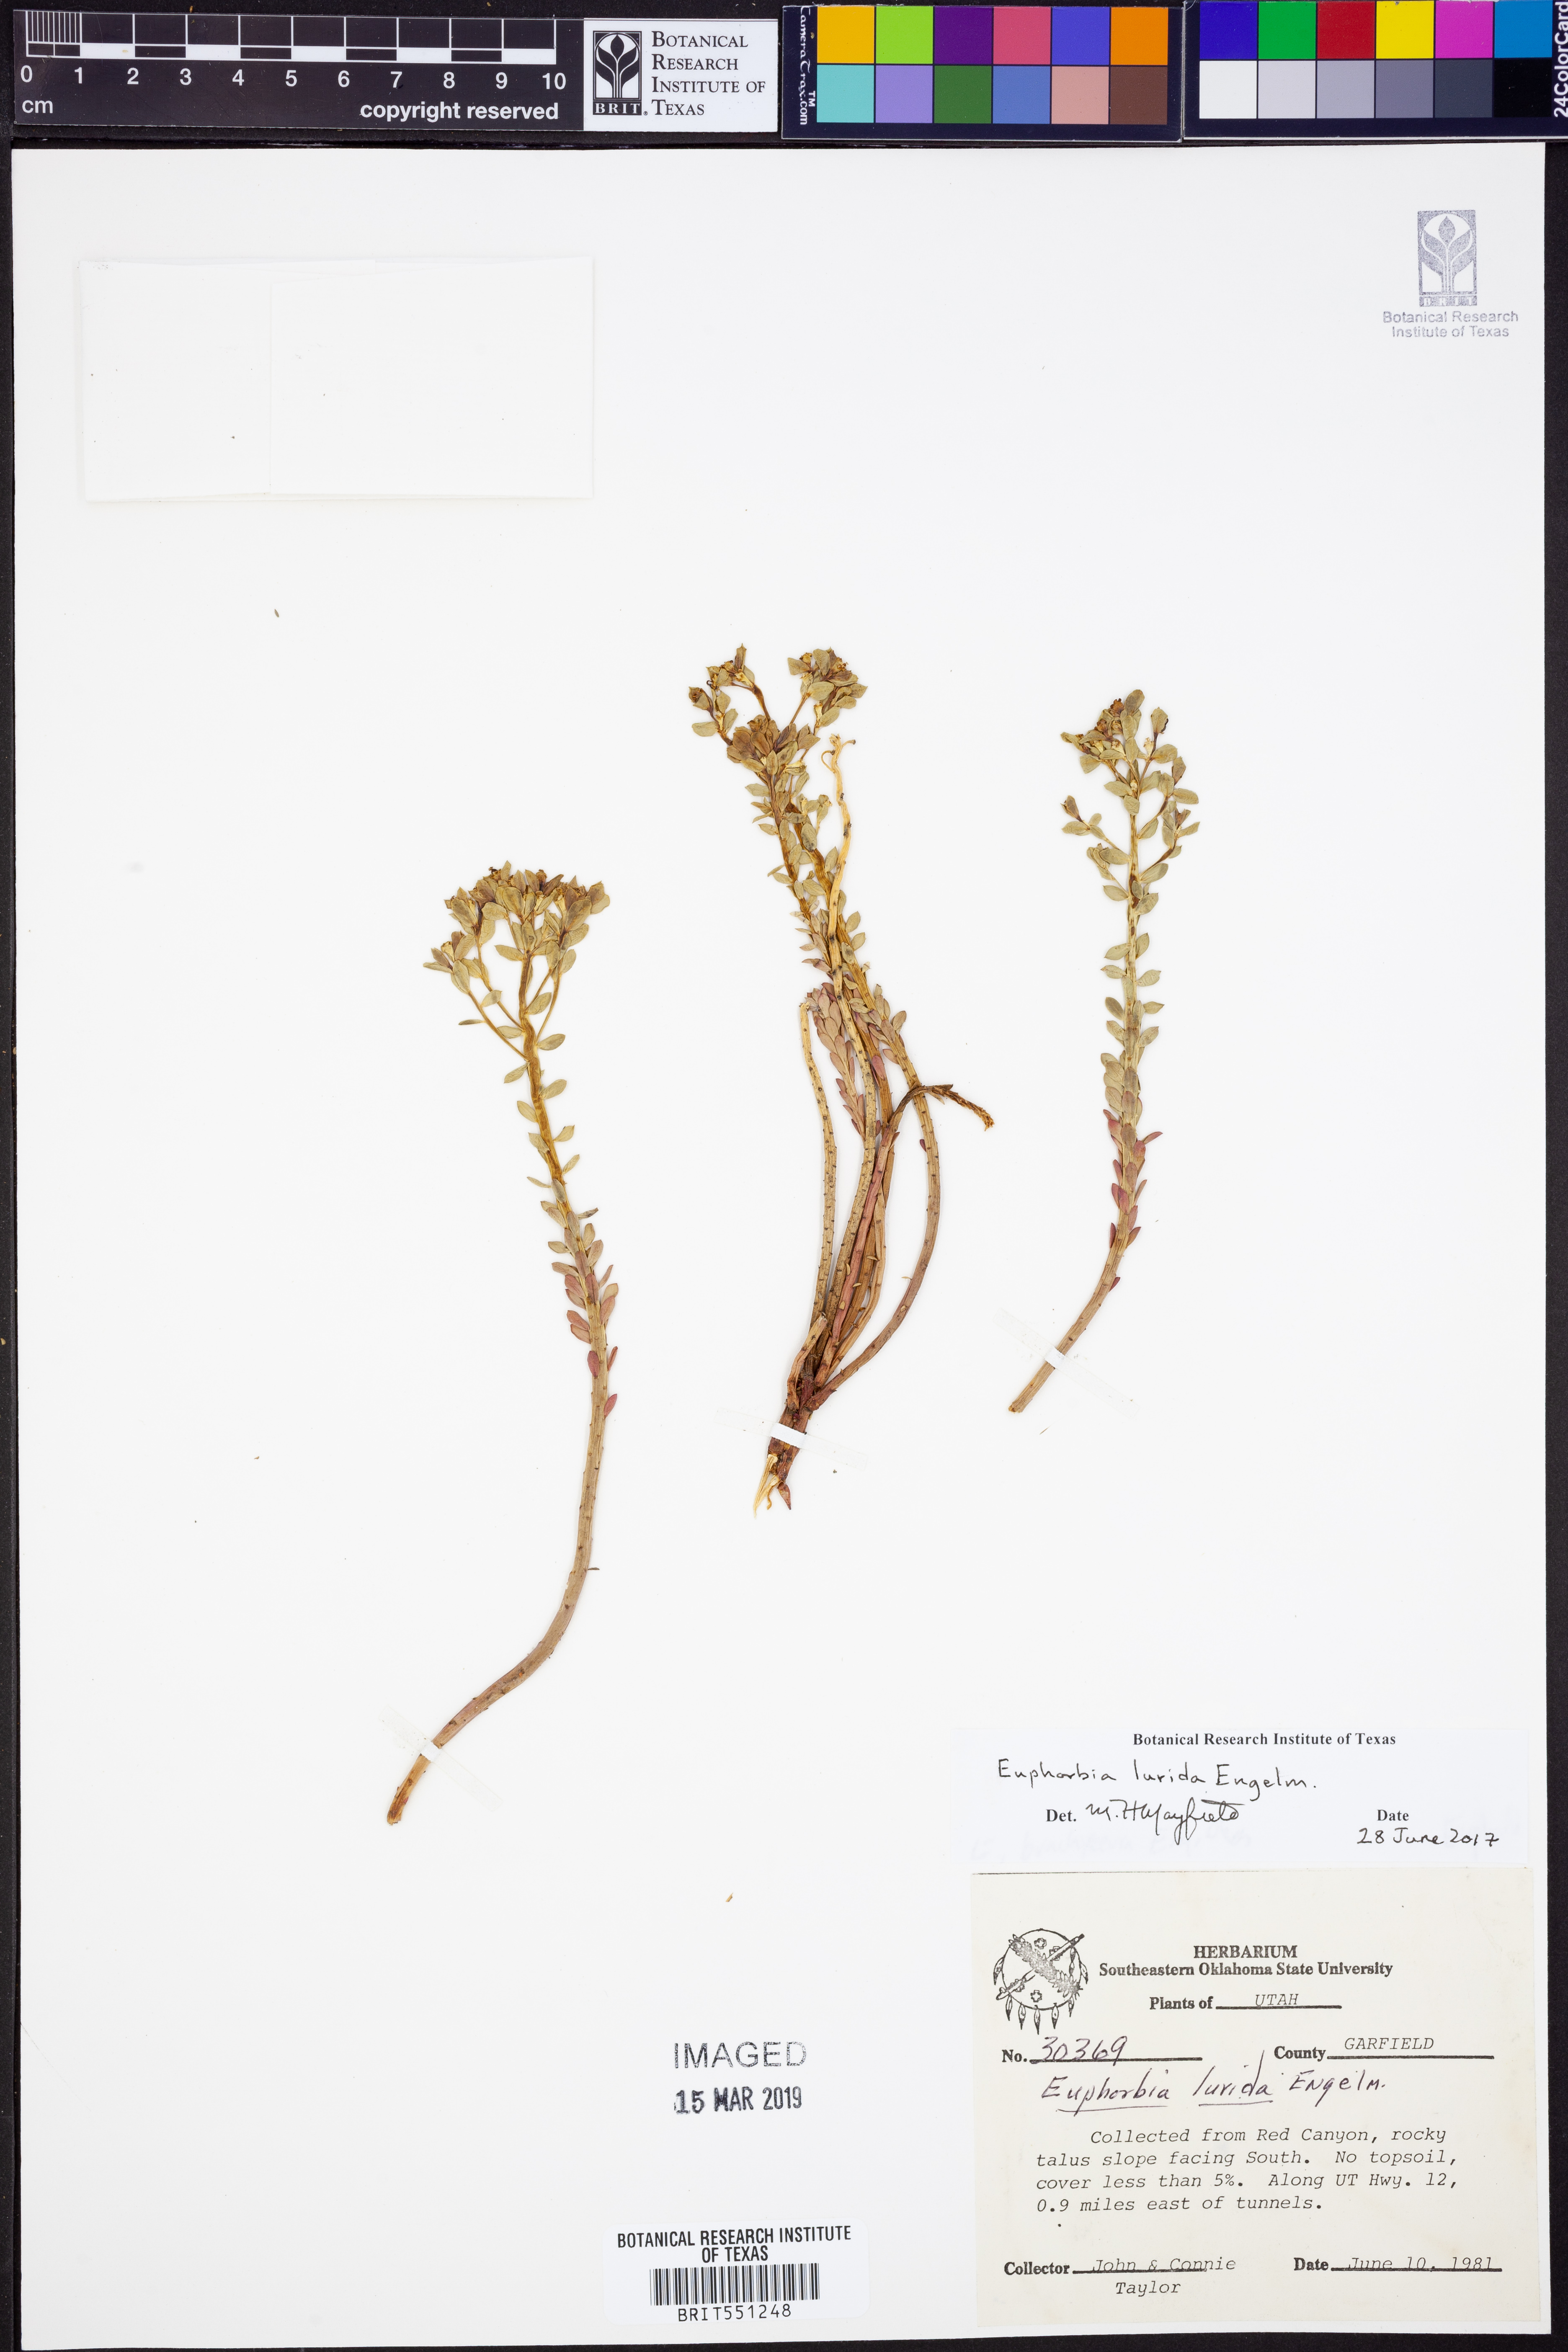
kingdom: Plantae
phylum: Tracheophyta
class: Magnoliopsida
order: Malpighiales
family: Euphorbiaceae
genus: Euphorbia
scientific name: Euphorbia lurida
